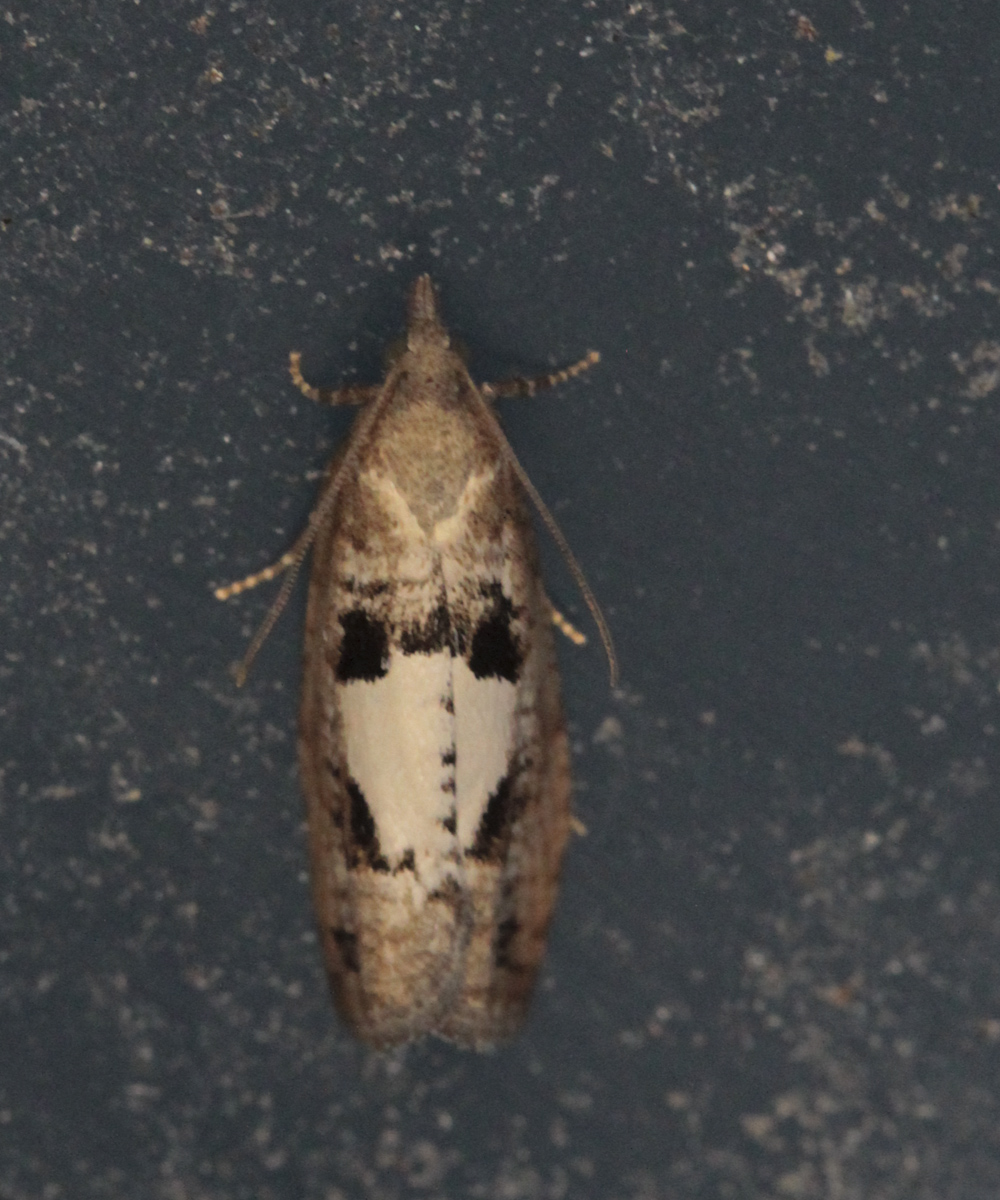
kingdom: Animalia
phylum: Arthropoda
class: Insecta
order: Lepidoptera
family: Tortricidae
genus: Epinotia
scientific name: Epinotia brunnichana
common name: Large birch bell
